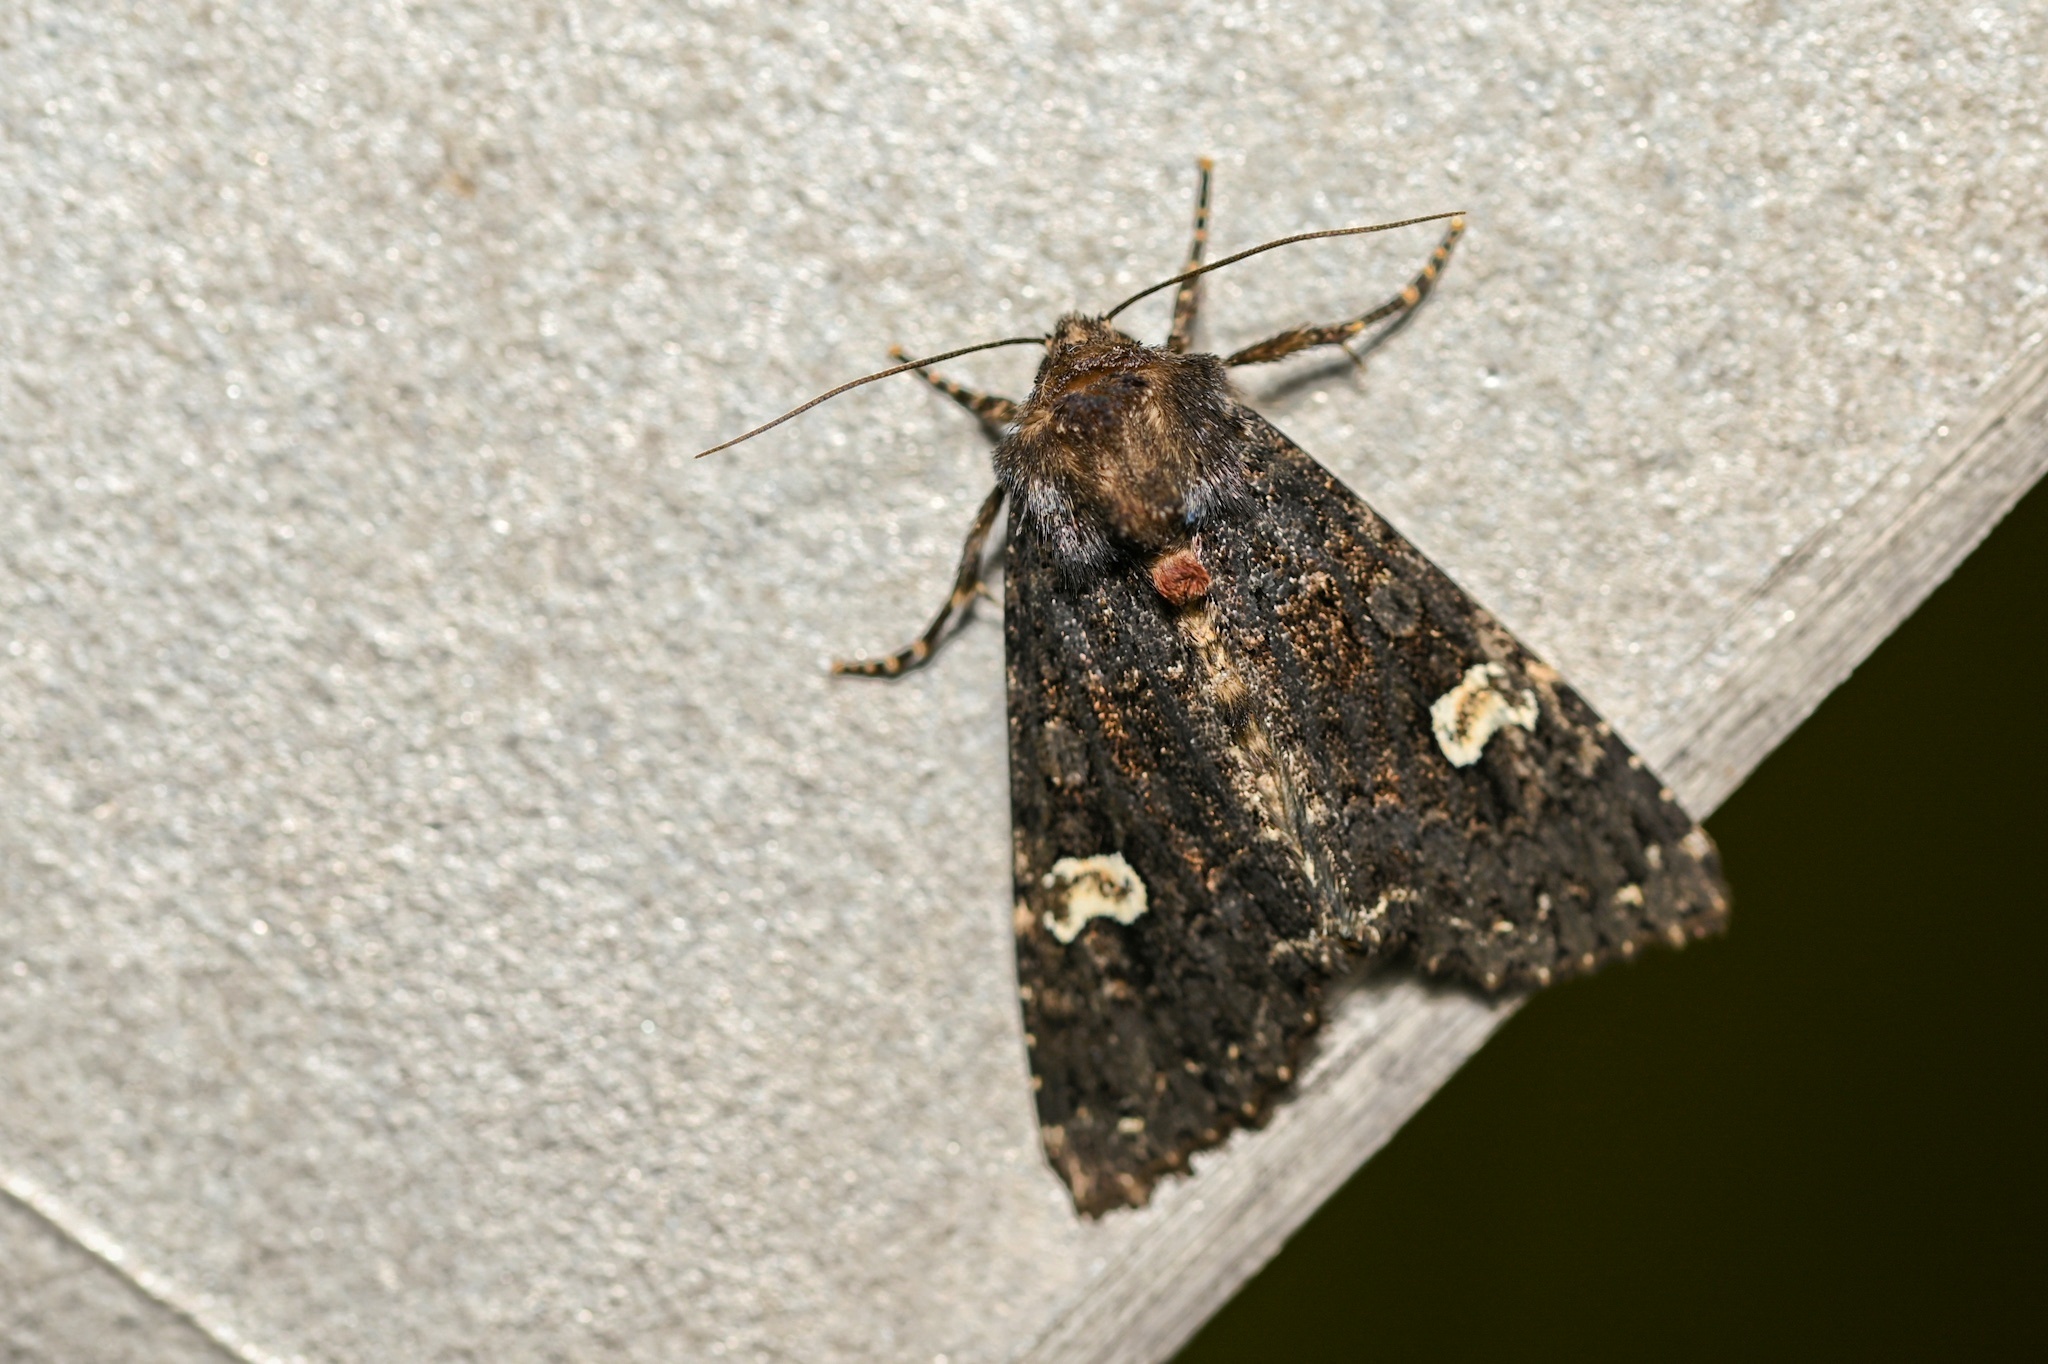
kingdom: Animalia
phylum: Arthropoda
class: Insecta
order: Lepidoptera
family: Noctuidae
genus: Melanchra
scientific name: Melanchra persicariae
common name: Dot moth
